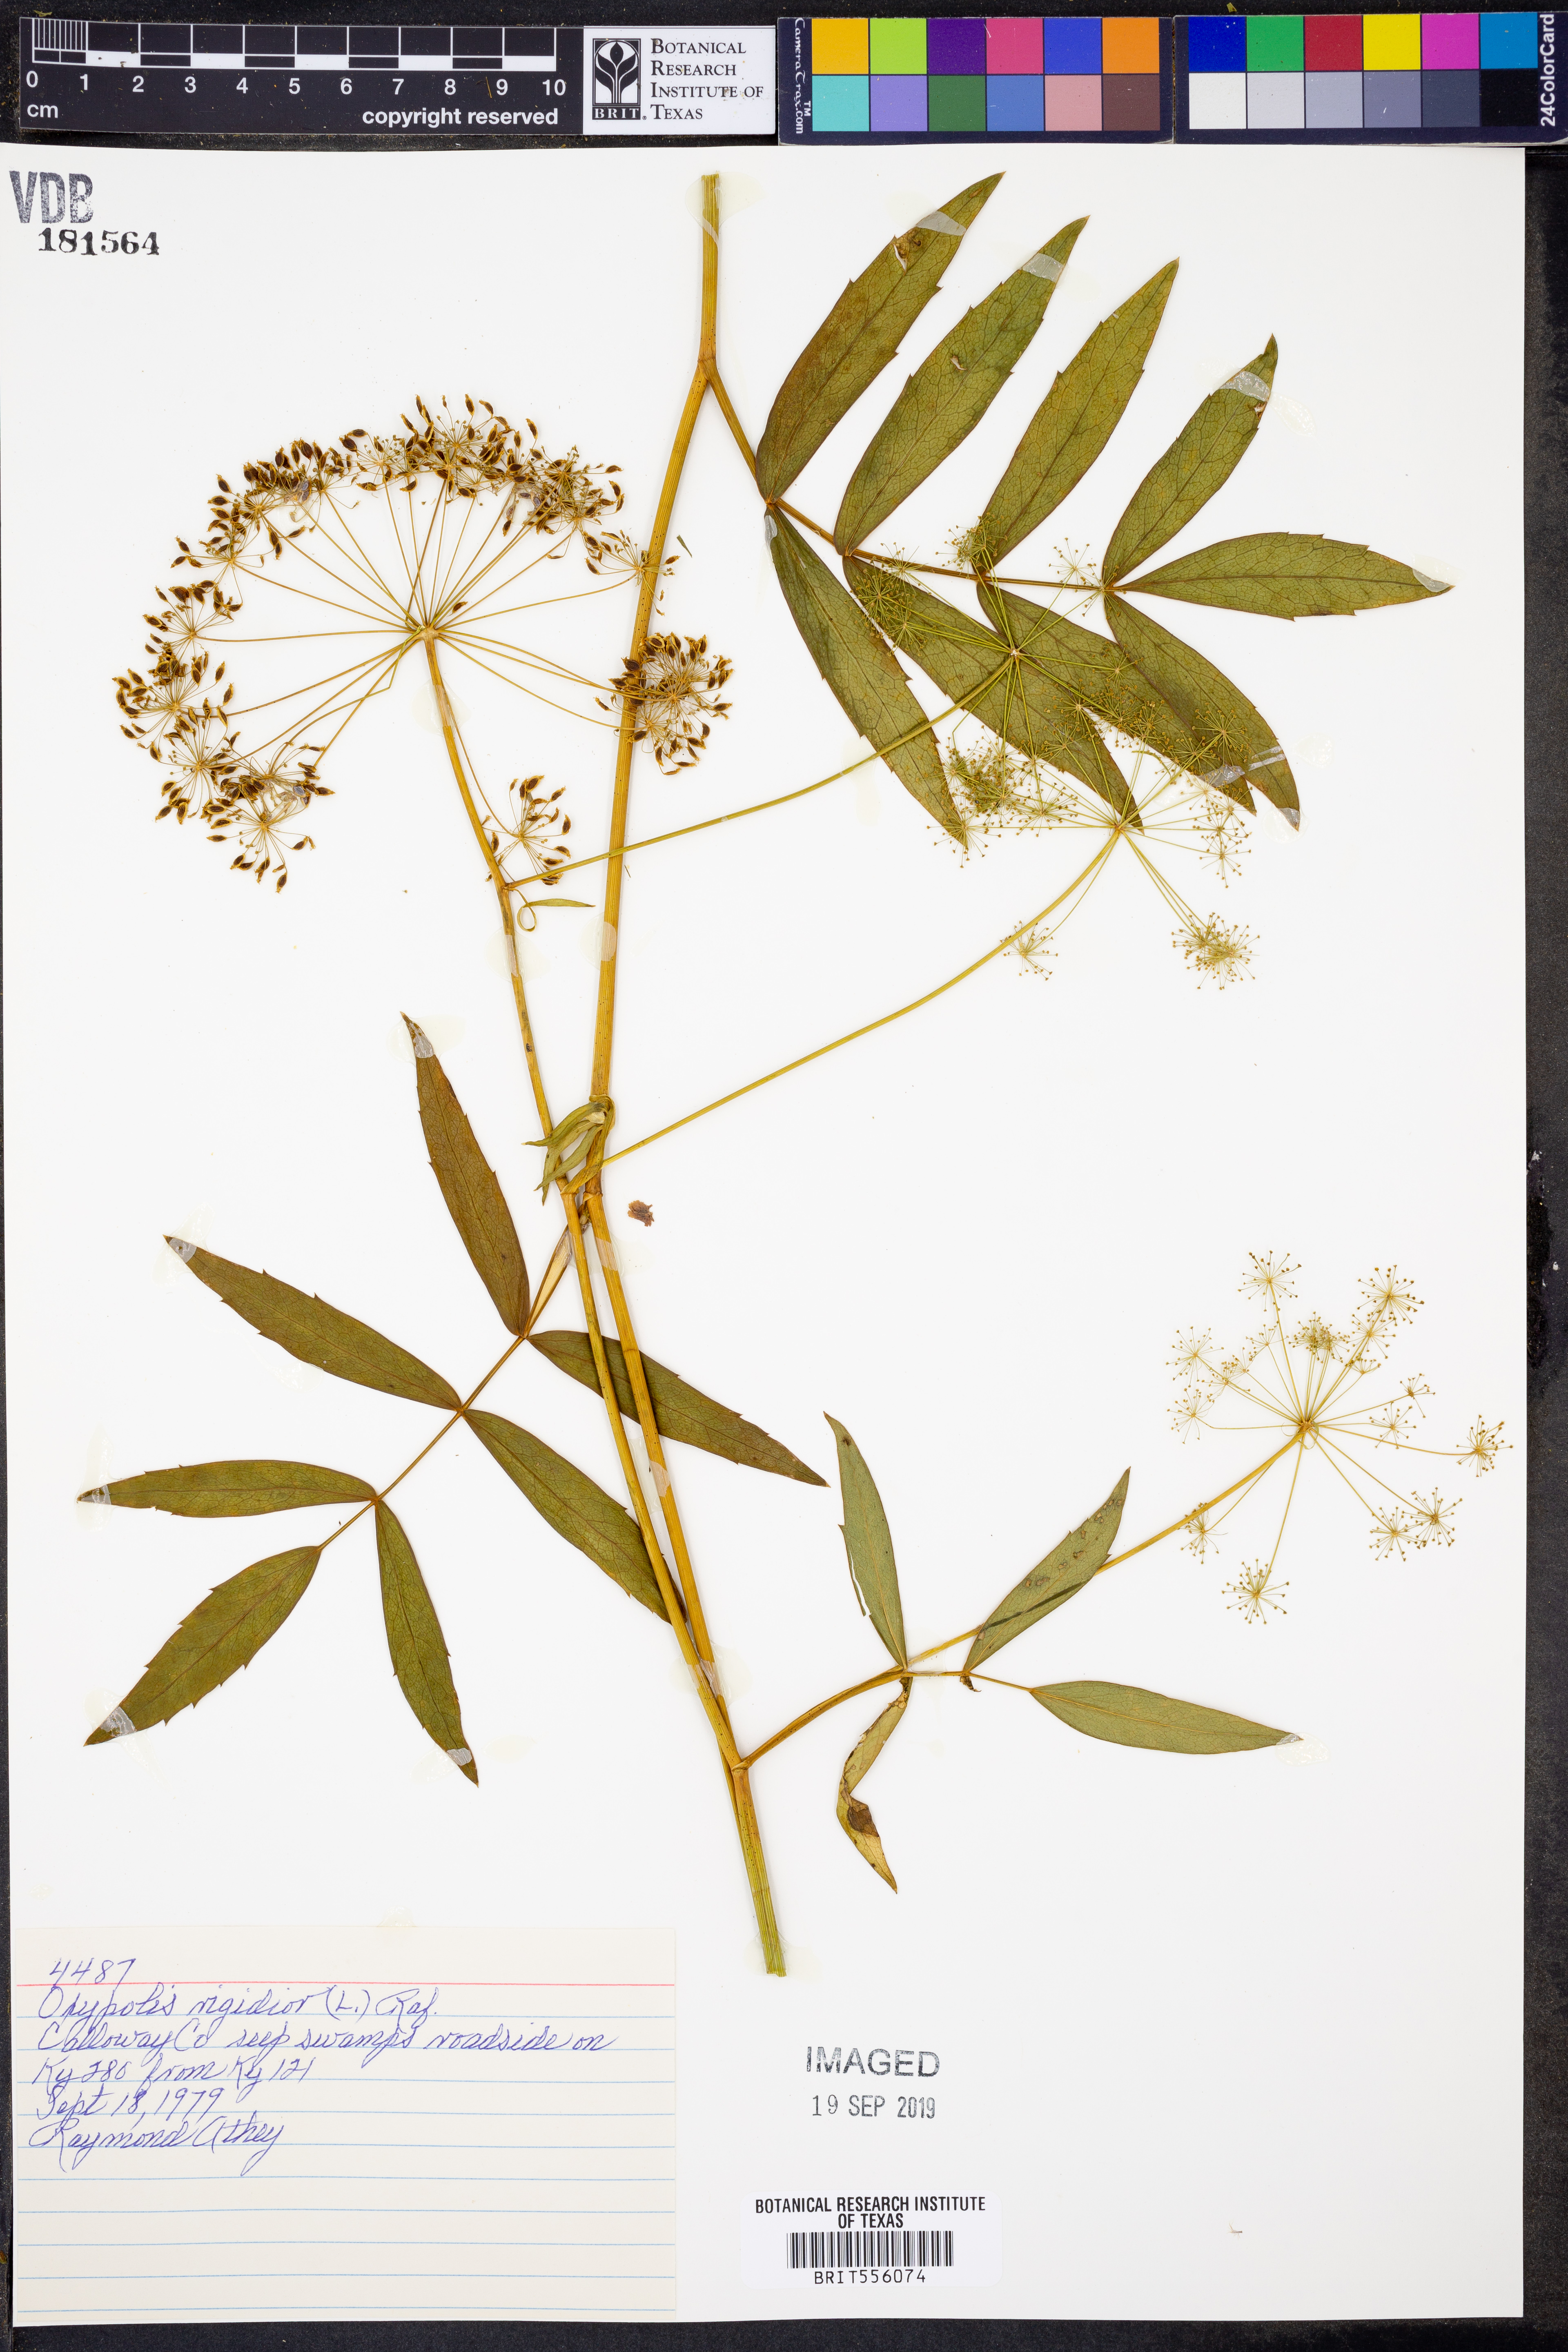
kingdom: Plantae
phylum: Tracheophyta
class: Magnoliopsida
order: Apiales
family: Apiaceae
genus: Oxypolis
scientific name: Oxypolis rigidior
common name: Cowbane
